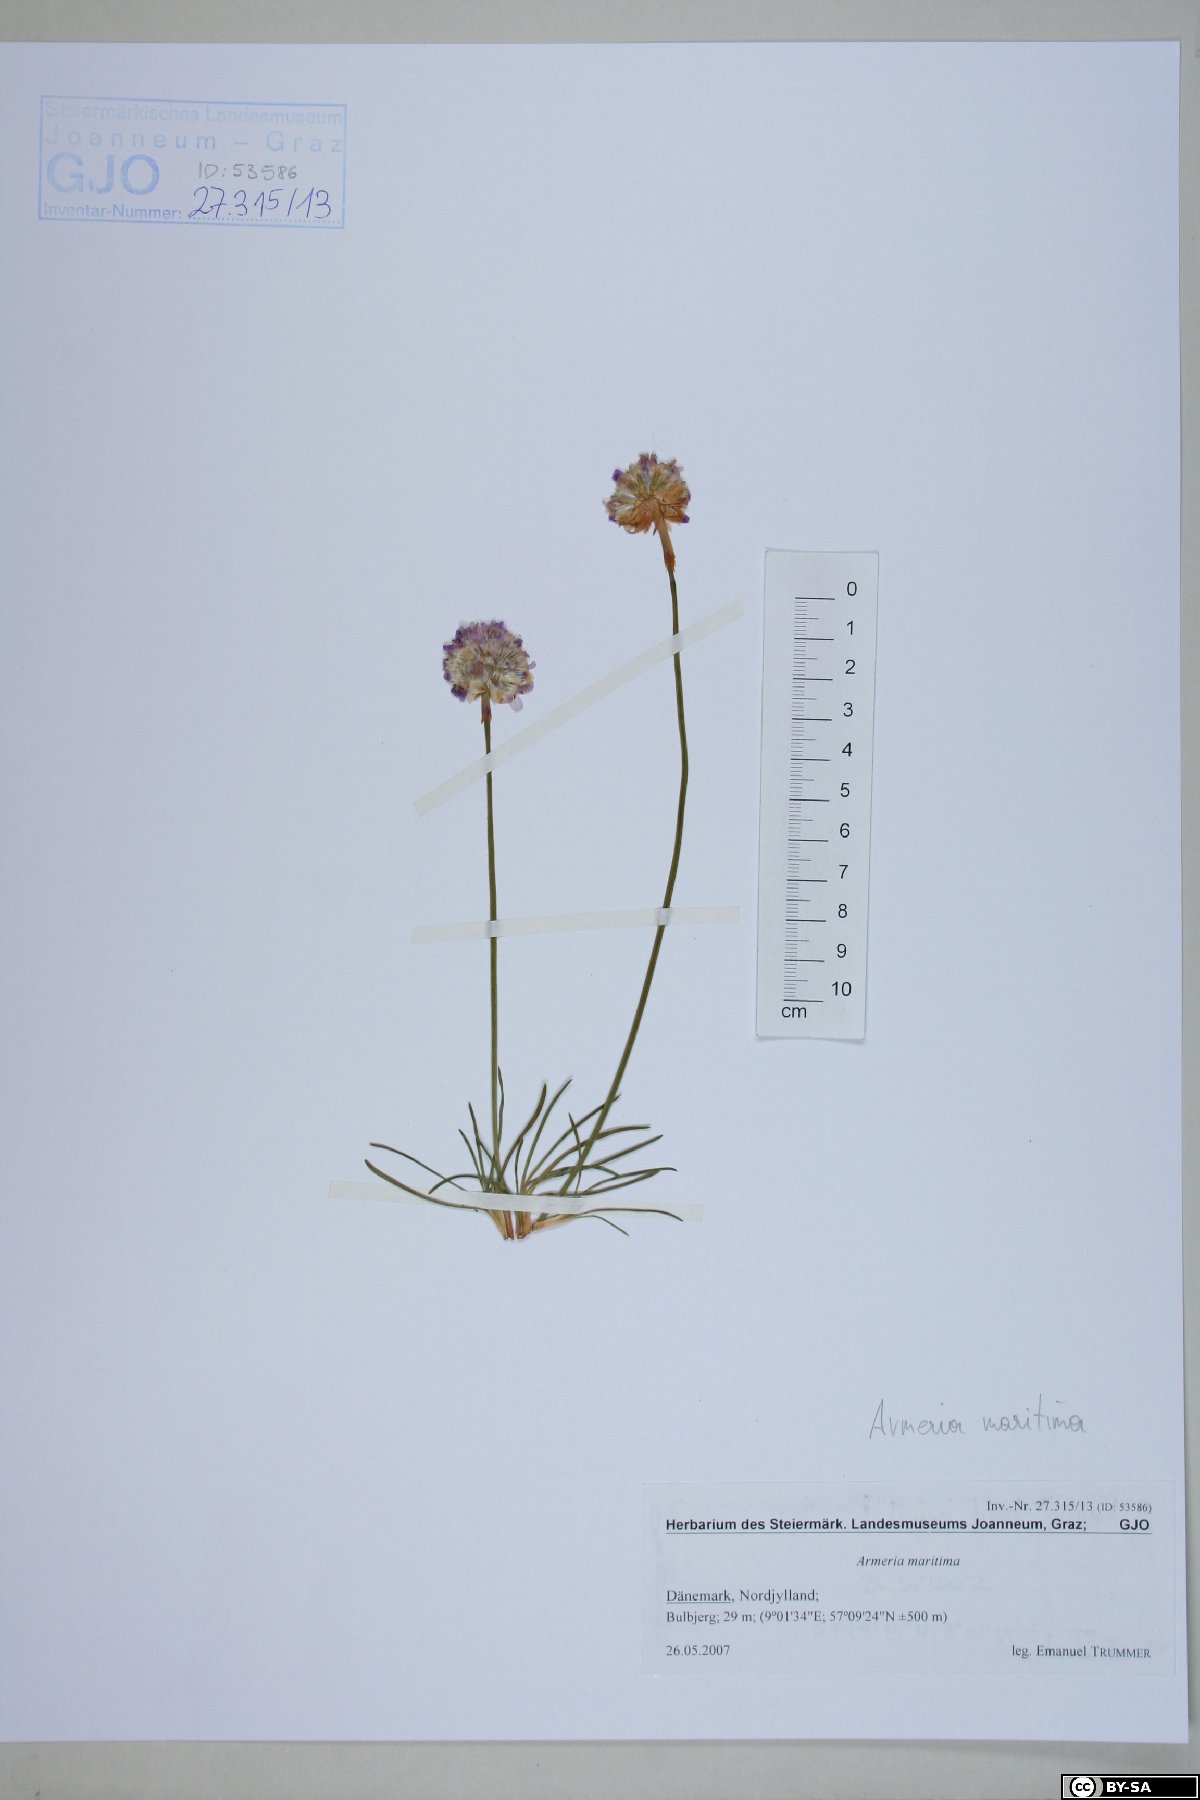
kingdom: Plantae
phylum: Tracheophyta
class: Magnoliopsida
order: Caryophyllales
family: Plumbaginaceae
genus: Armeria
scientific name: Armeria maritima
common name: Thrift
